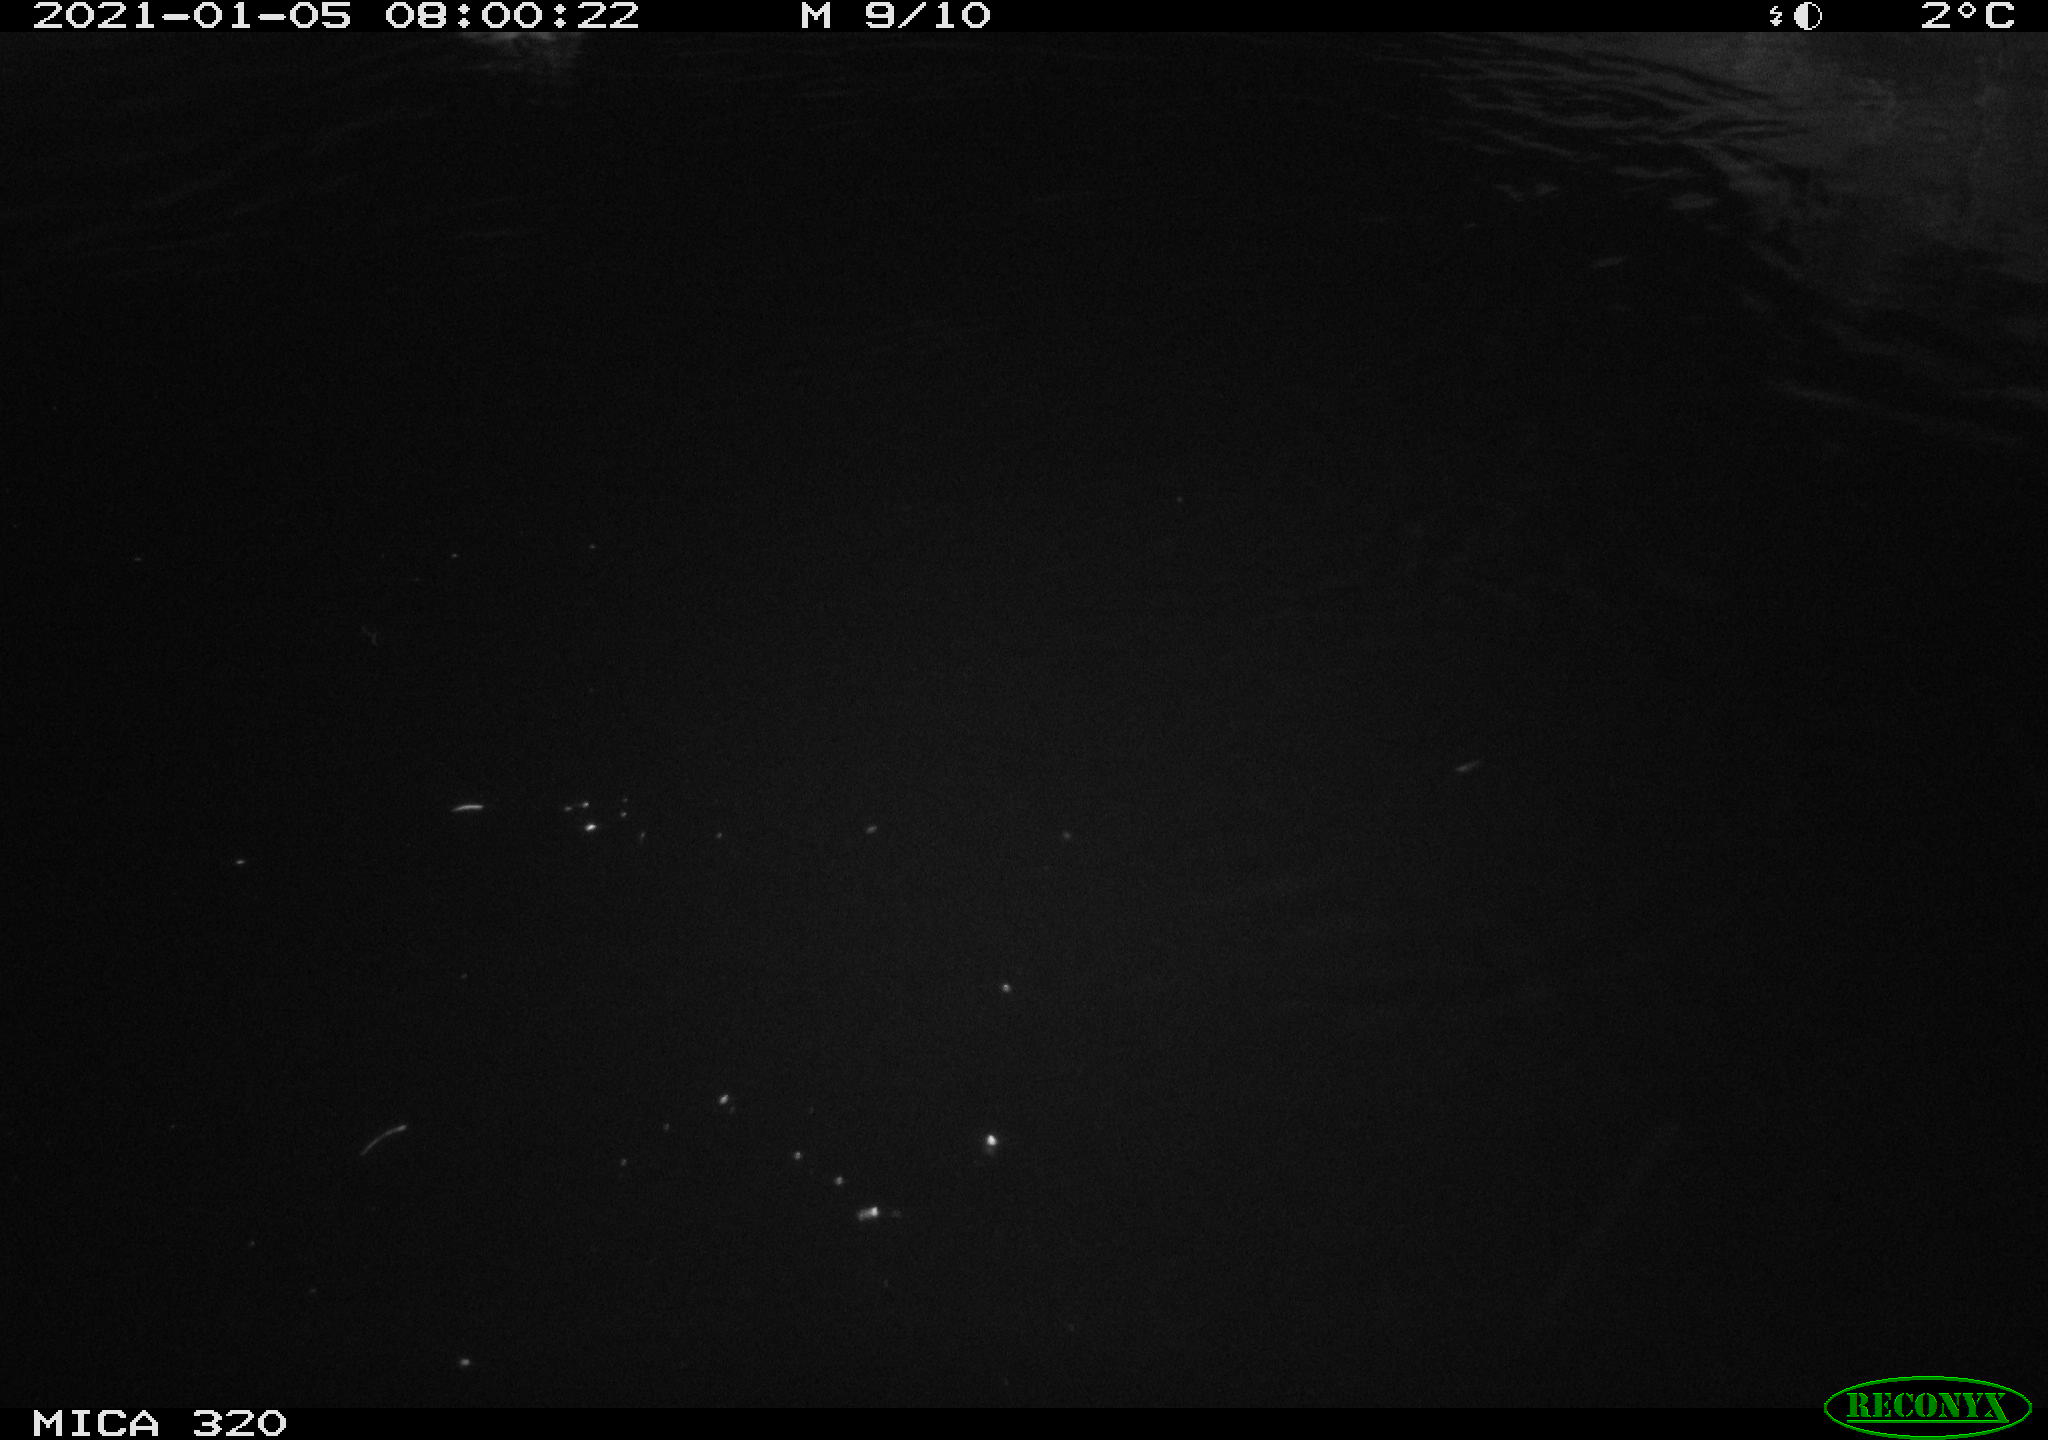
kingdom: Animalia
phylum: Chordata
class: Aves
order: Anseriformes
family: Anatidae
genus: Anas
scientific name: Anas platyrhynchos
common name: Mallard
